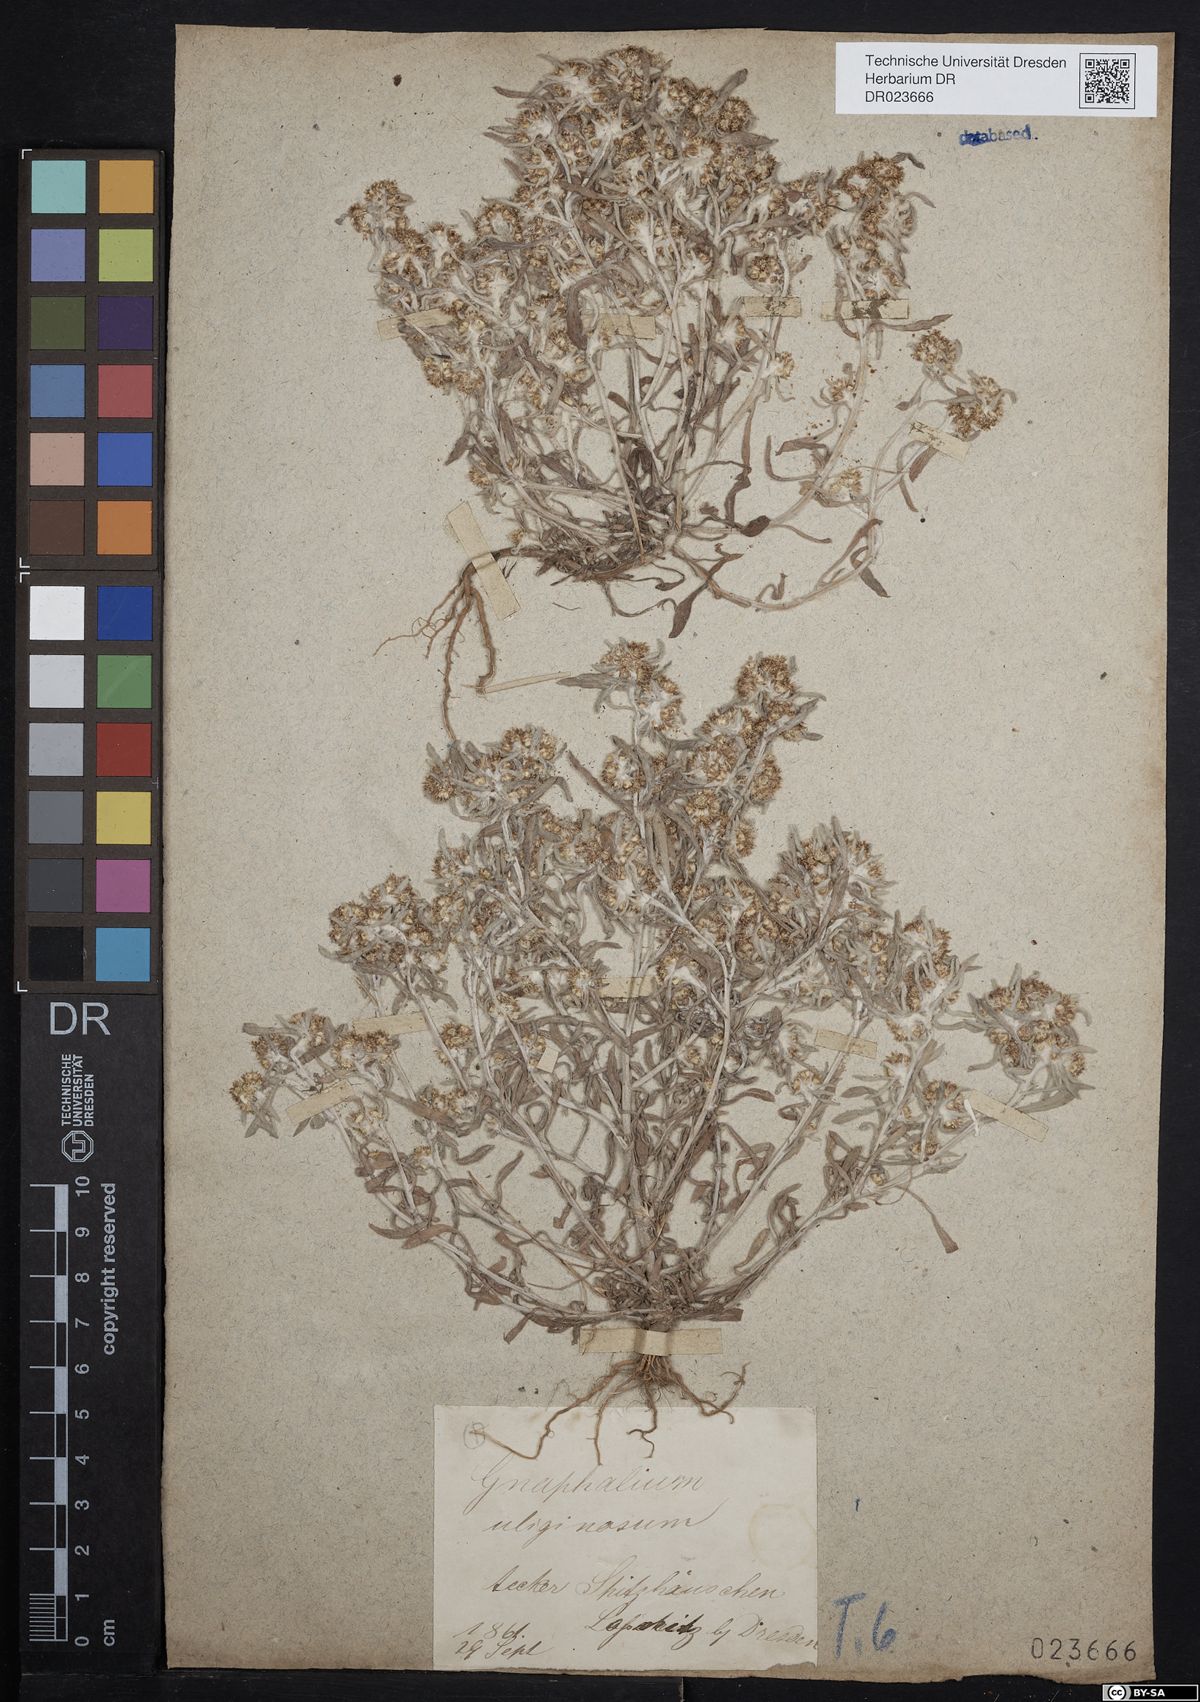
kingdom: Plantae
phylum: Tracheophyta
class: Magnoliopsida
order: Asterales
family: Asteraceae
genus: Gnaphalium
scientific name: Gnaphalium uliginosum
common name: Marsh cudweed
